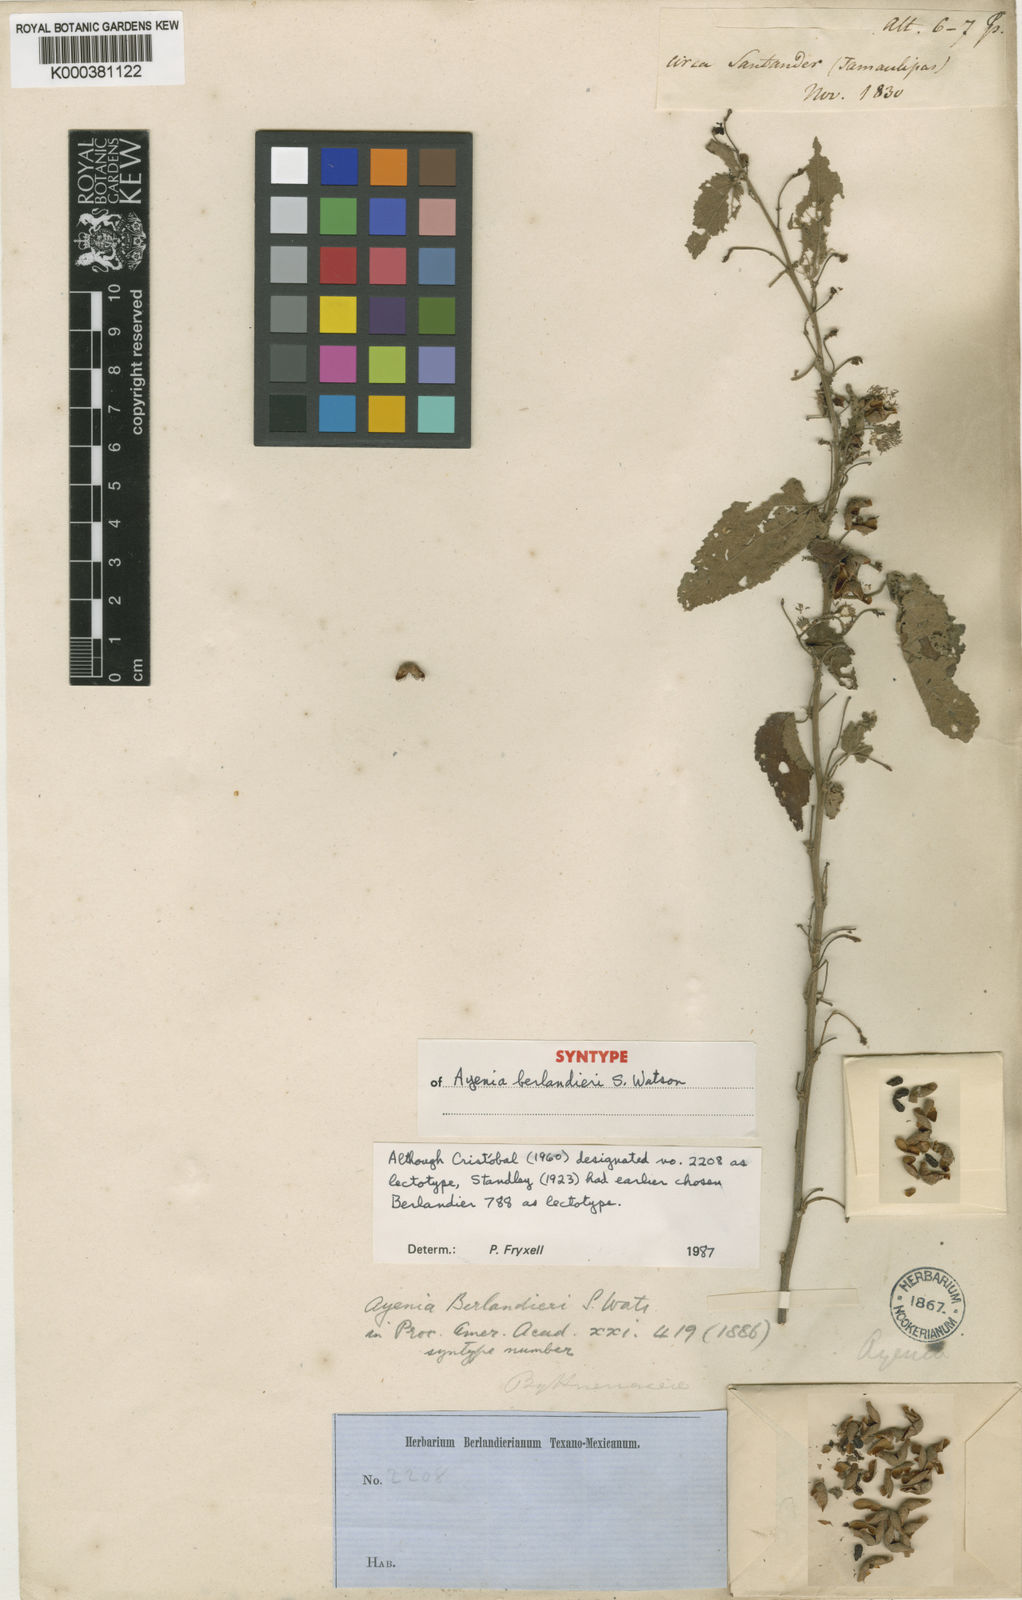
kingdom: Plantae
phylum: Tracheophyta
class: Magnoliopsida
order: Malvales
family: Malvaceae
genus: Ayenia
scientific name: Ayenia berlandieri
